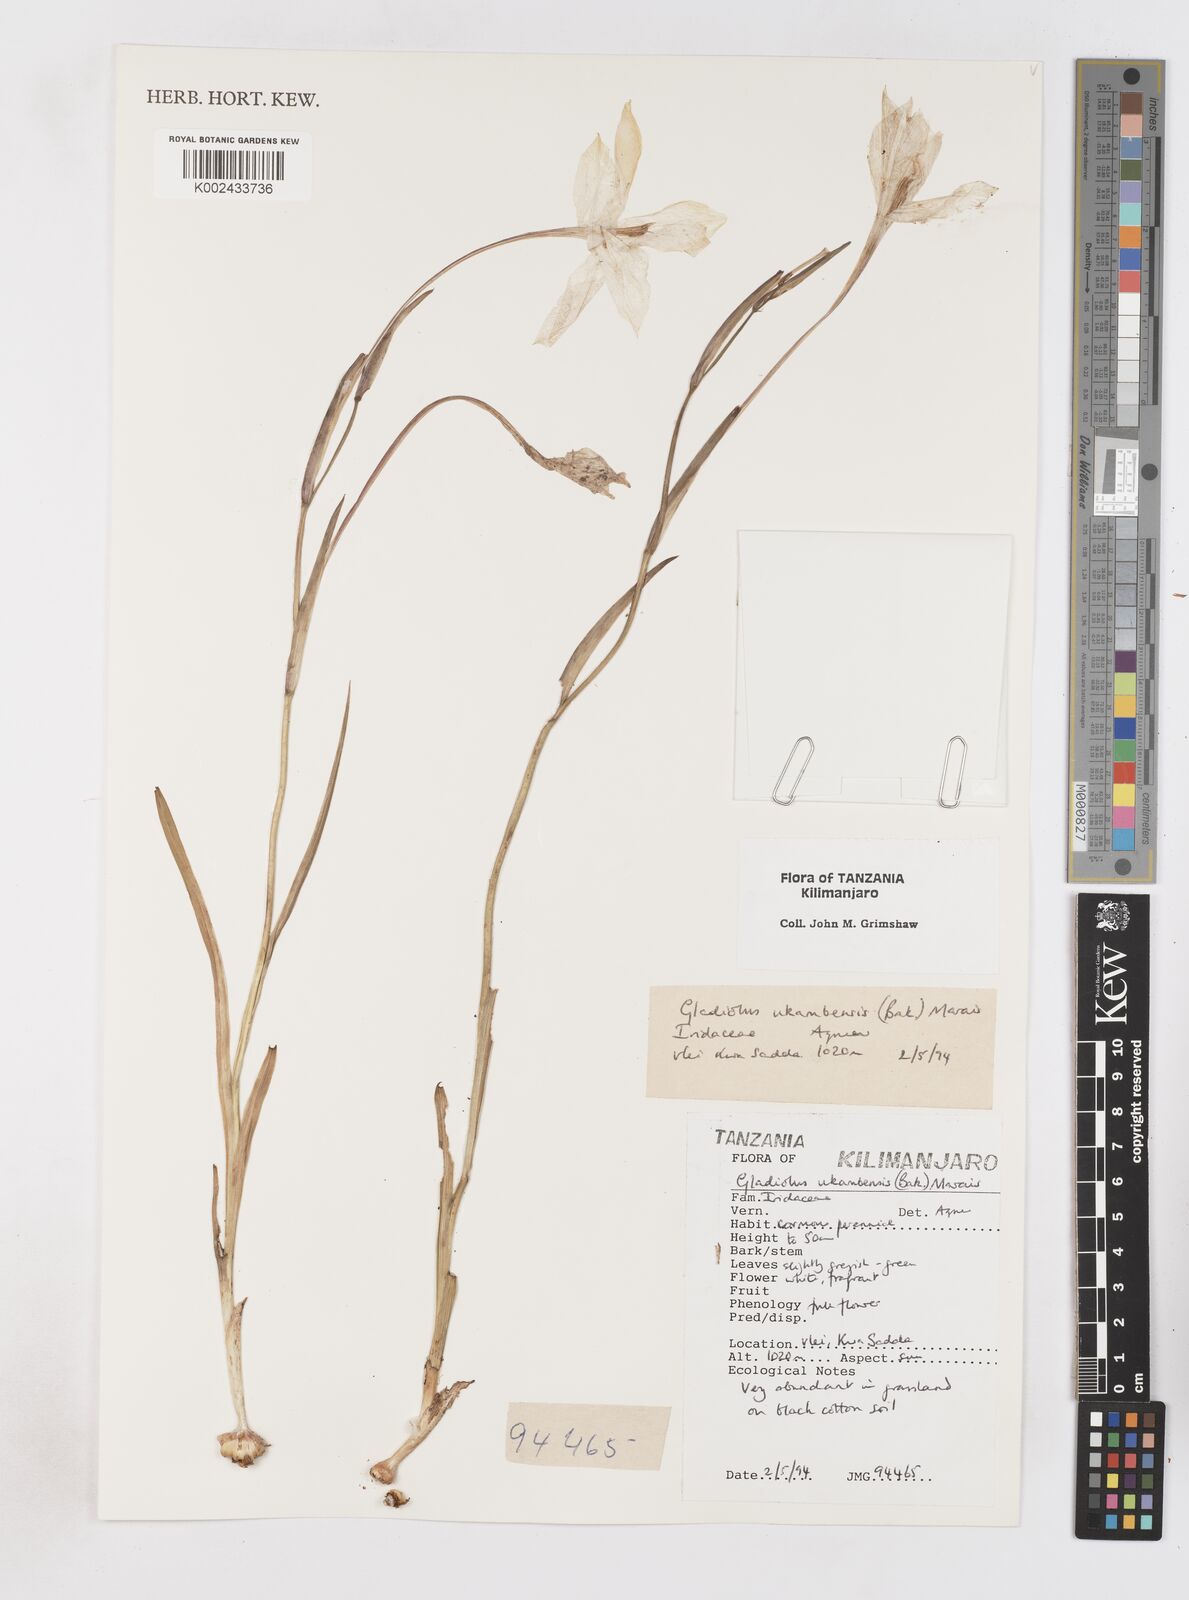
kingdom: Plantae
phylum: Tracheophyta
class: Liliopsida
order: Asparagales
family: Iridaceae
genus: Gladiolus
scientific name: Gladiolus candidus
